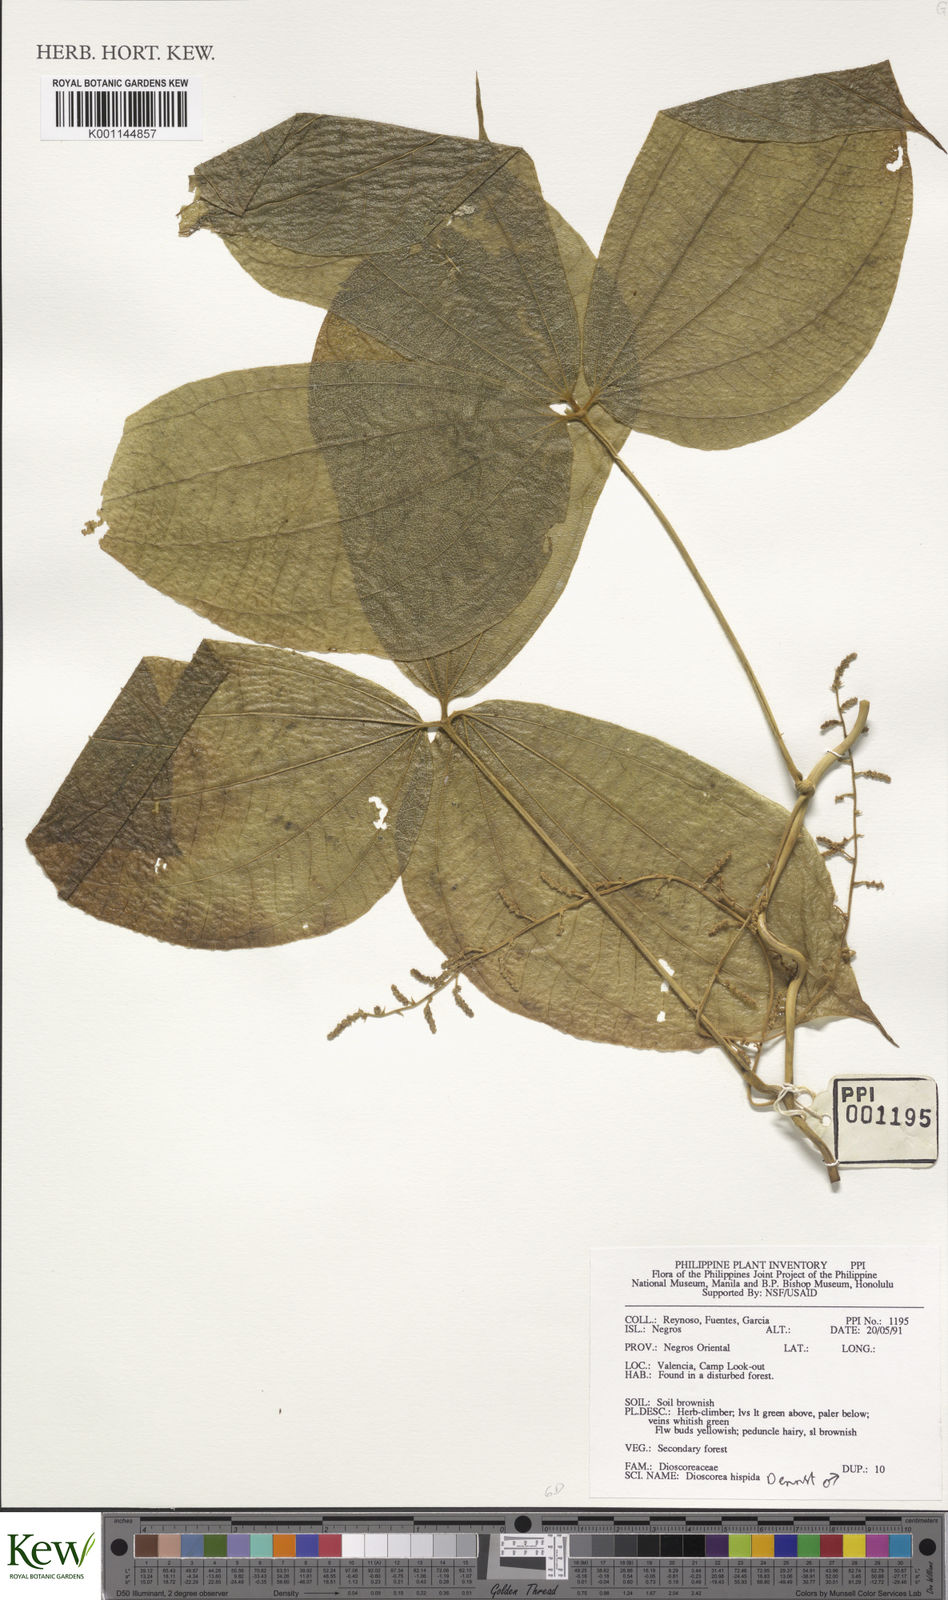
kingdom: Plantae
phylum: Tracheophyta
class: Liliopsida
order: Dioscoreales
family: Dioscoreaceae
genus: Dioscorea
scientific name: Dioscorea hispida
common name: Asiatic bitter yam
